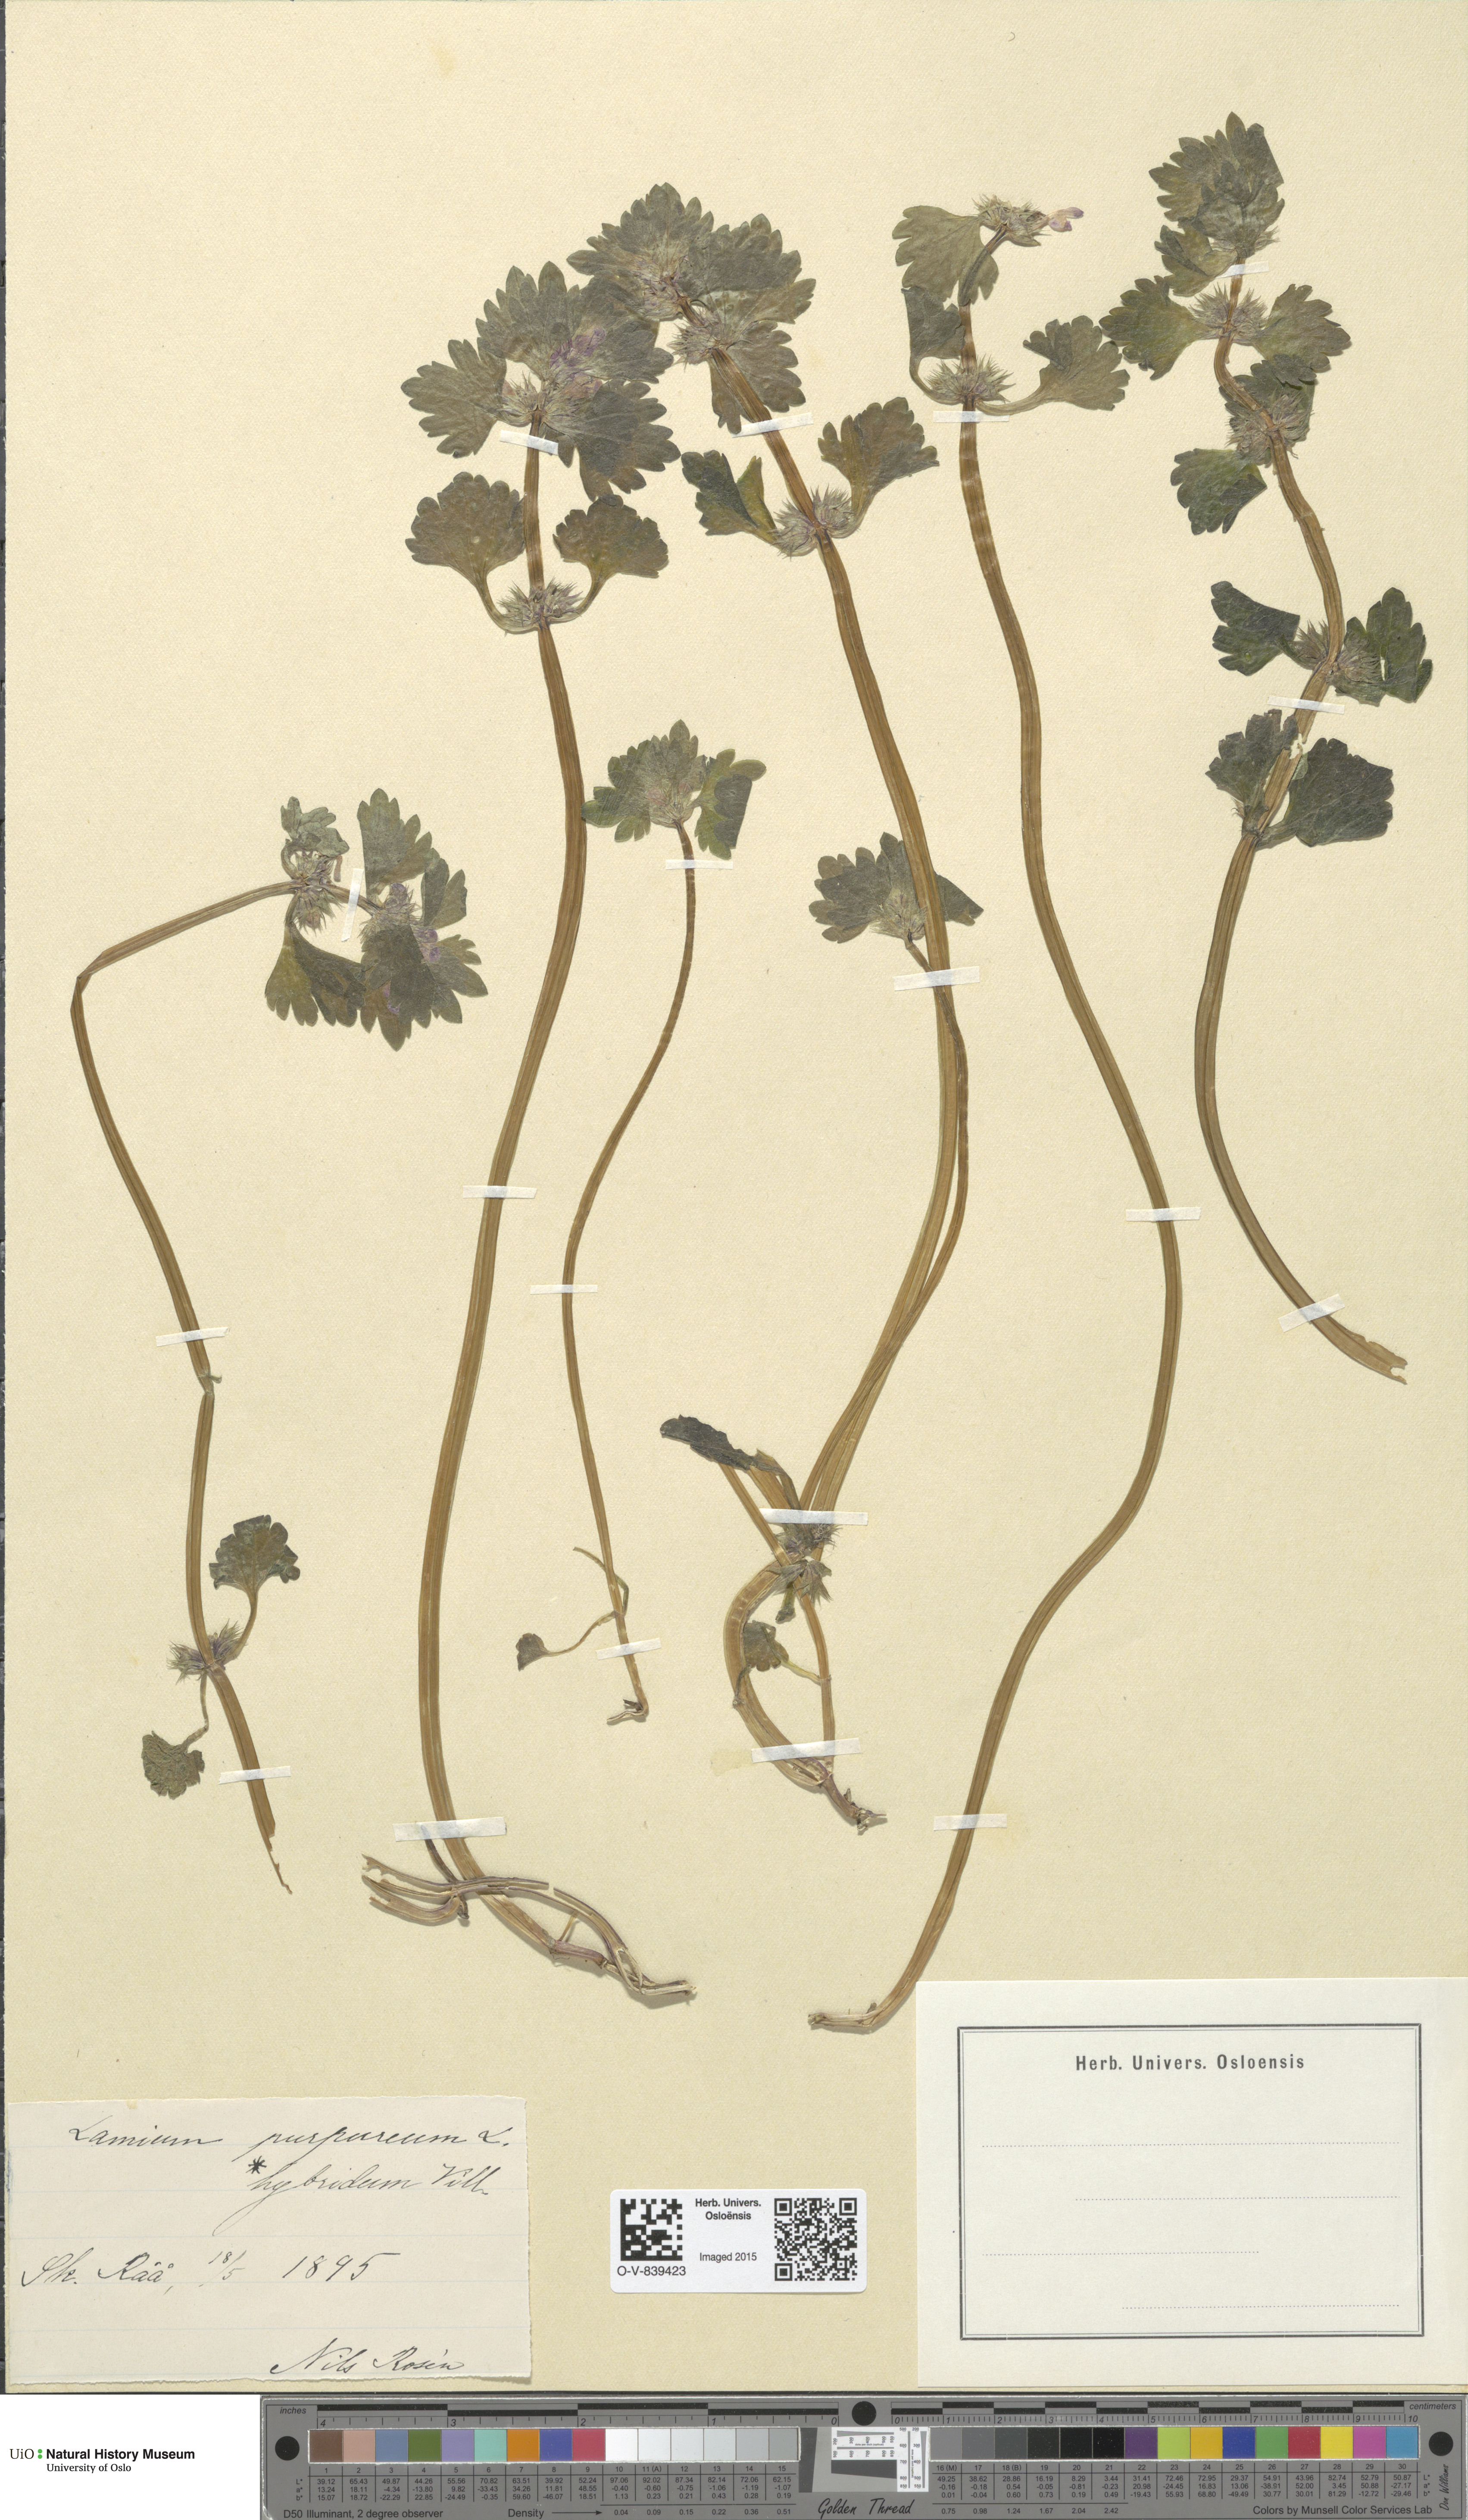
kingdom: Plantae
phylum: Tracheophyta
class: Magnoliopsida
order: Lamiales
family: Lamiaceae
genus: Lamium
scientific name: Lamium hybridum
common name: Cut-leaved dead-nettle
